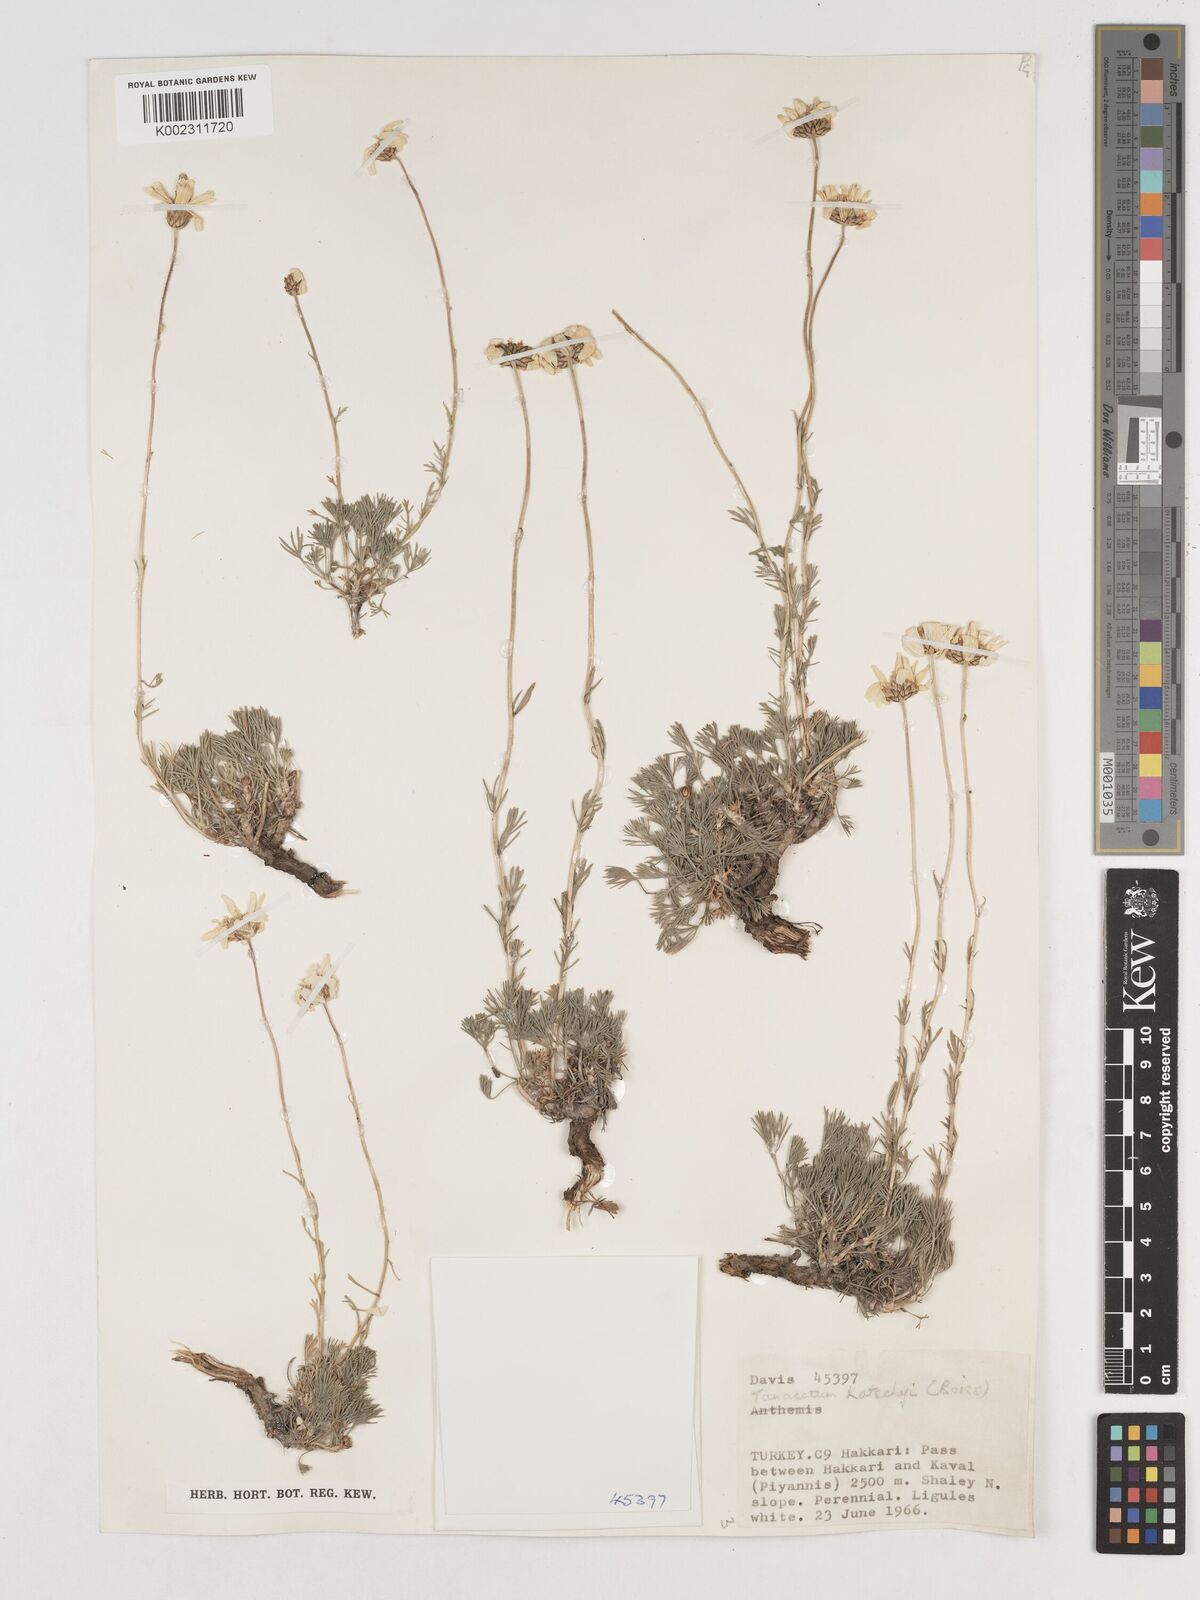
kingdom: Plantae
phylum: Tracheophyta
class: Magnoliopsida
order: Asterales
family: Asteraceae
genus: Tanacetum
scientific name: Tanacetum kotschyi
